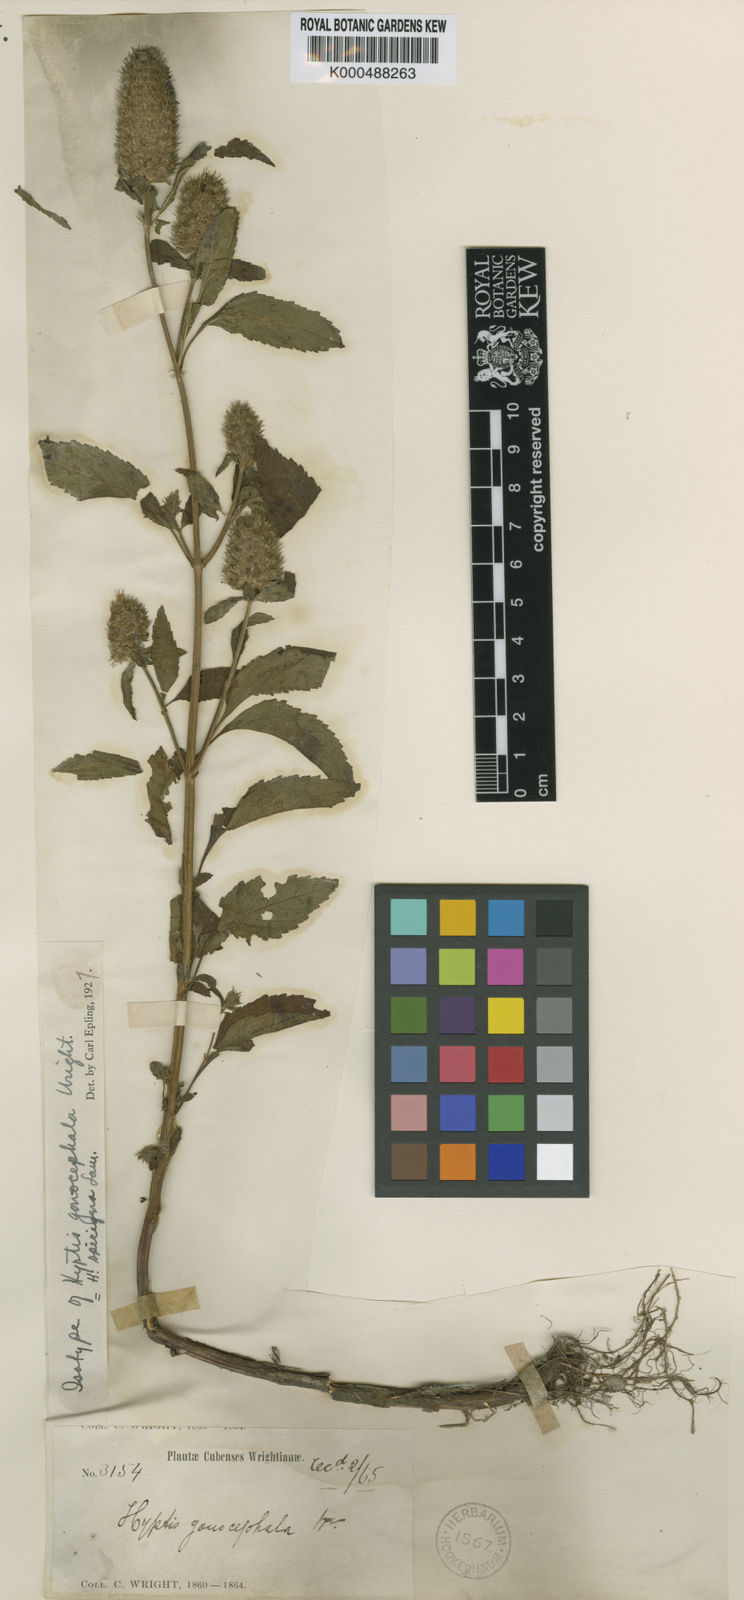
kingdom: Plantae
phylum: Tracheophyta
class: Magnoliopsida
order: Lamiales
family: Lamiaceae
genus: Cantinoa
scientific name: Cantinoa americana
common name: Black-sesame
